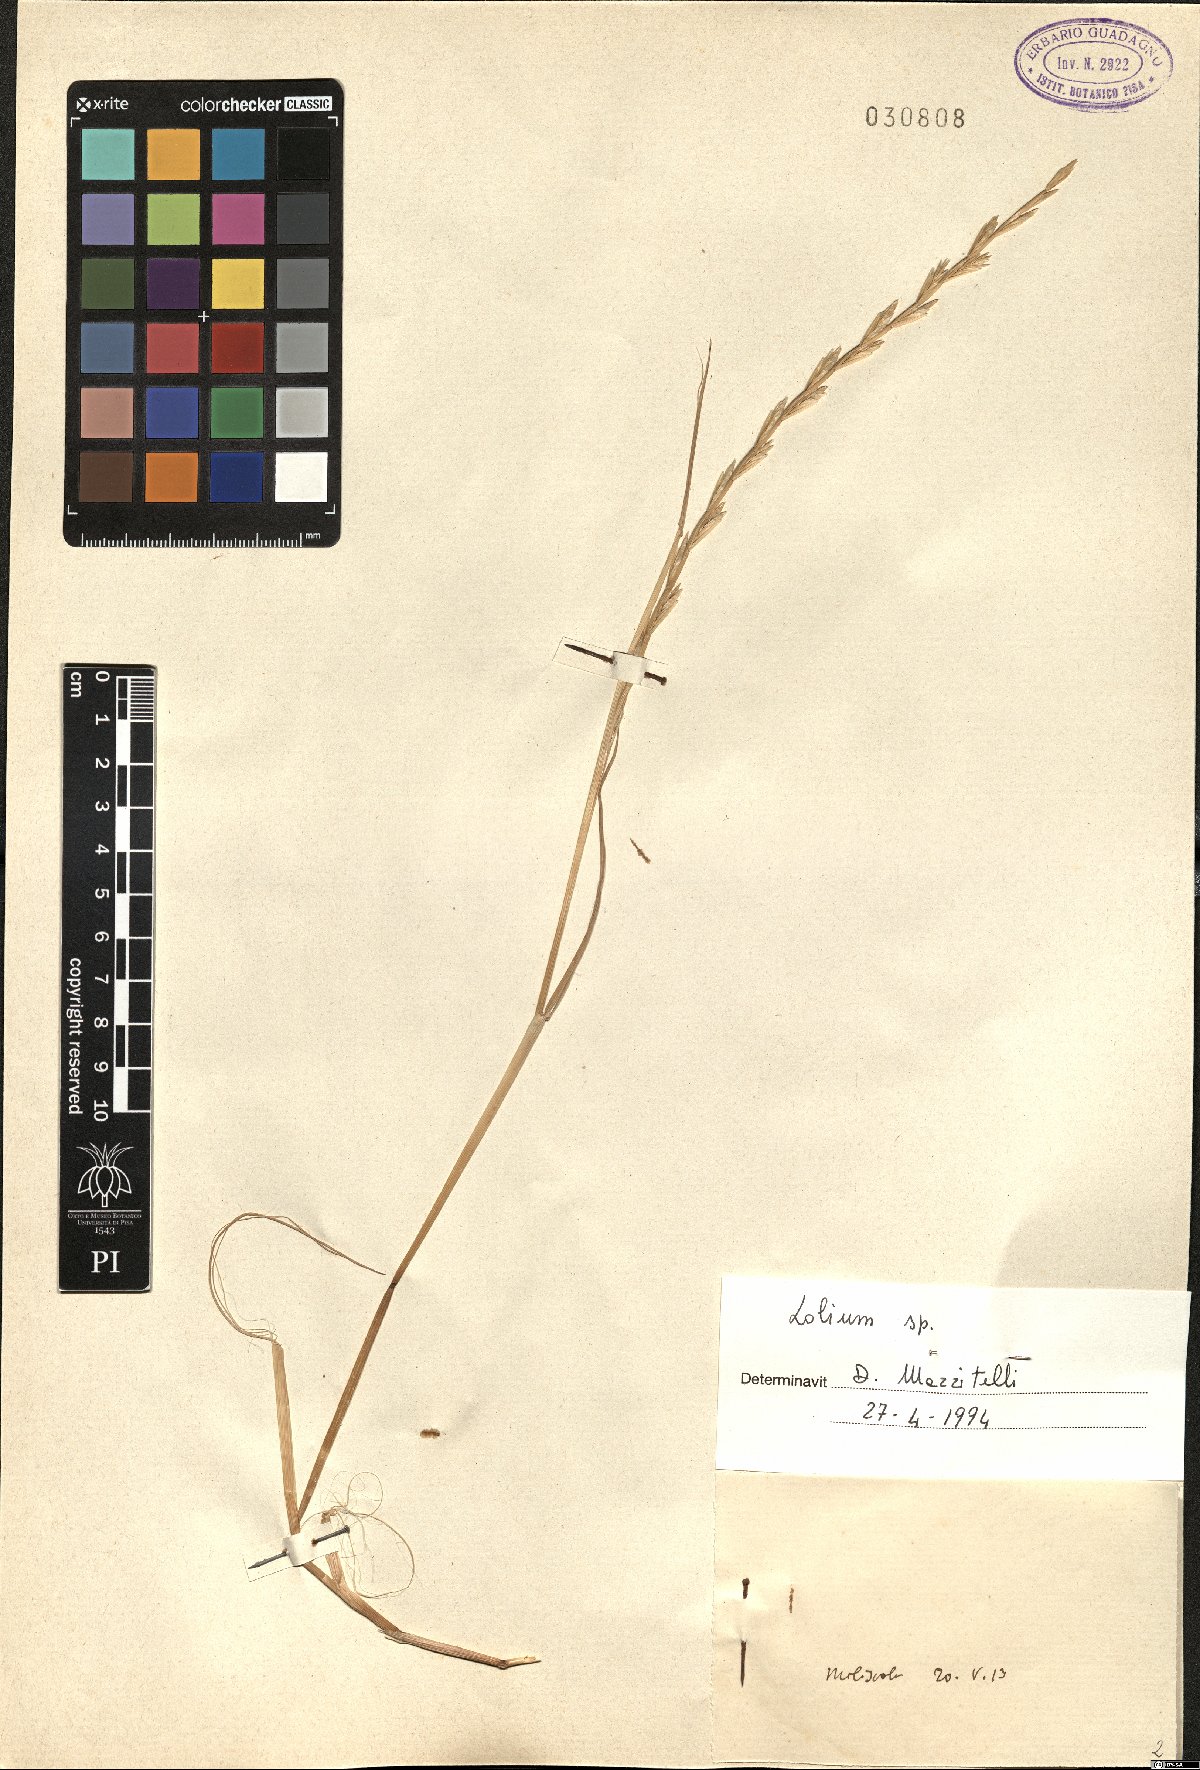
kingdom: Plantae
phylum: Tracheophyta
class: Liliopsida
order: Poales
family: Poaceae
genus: Lolium
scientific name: Lolium
